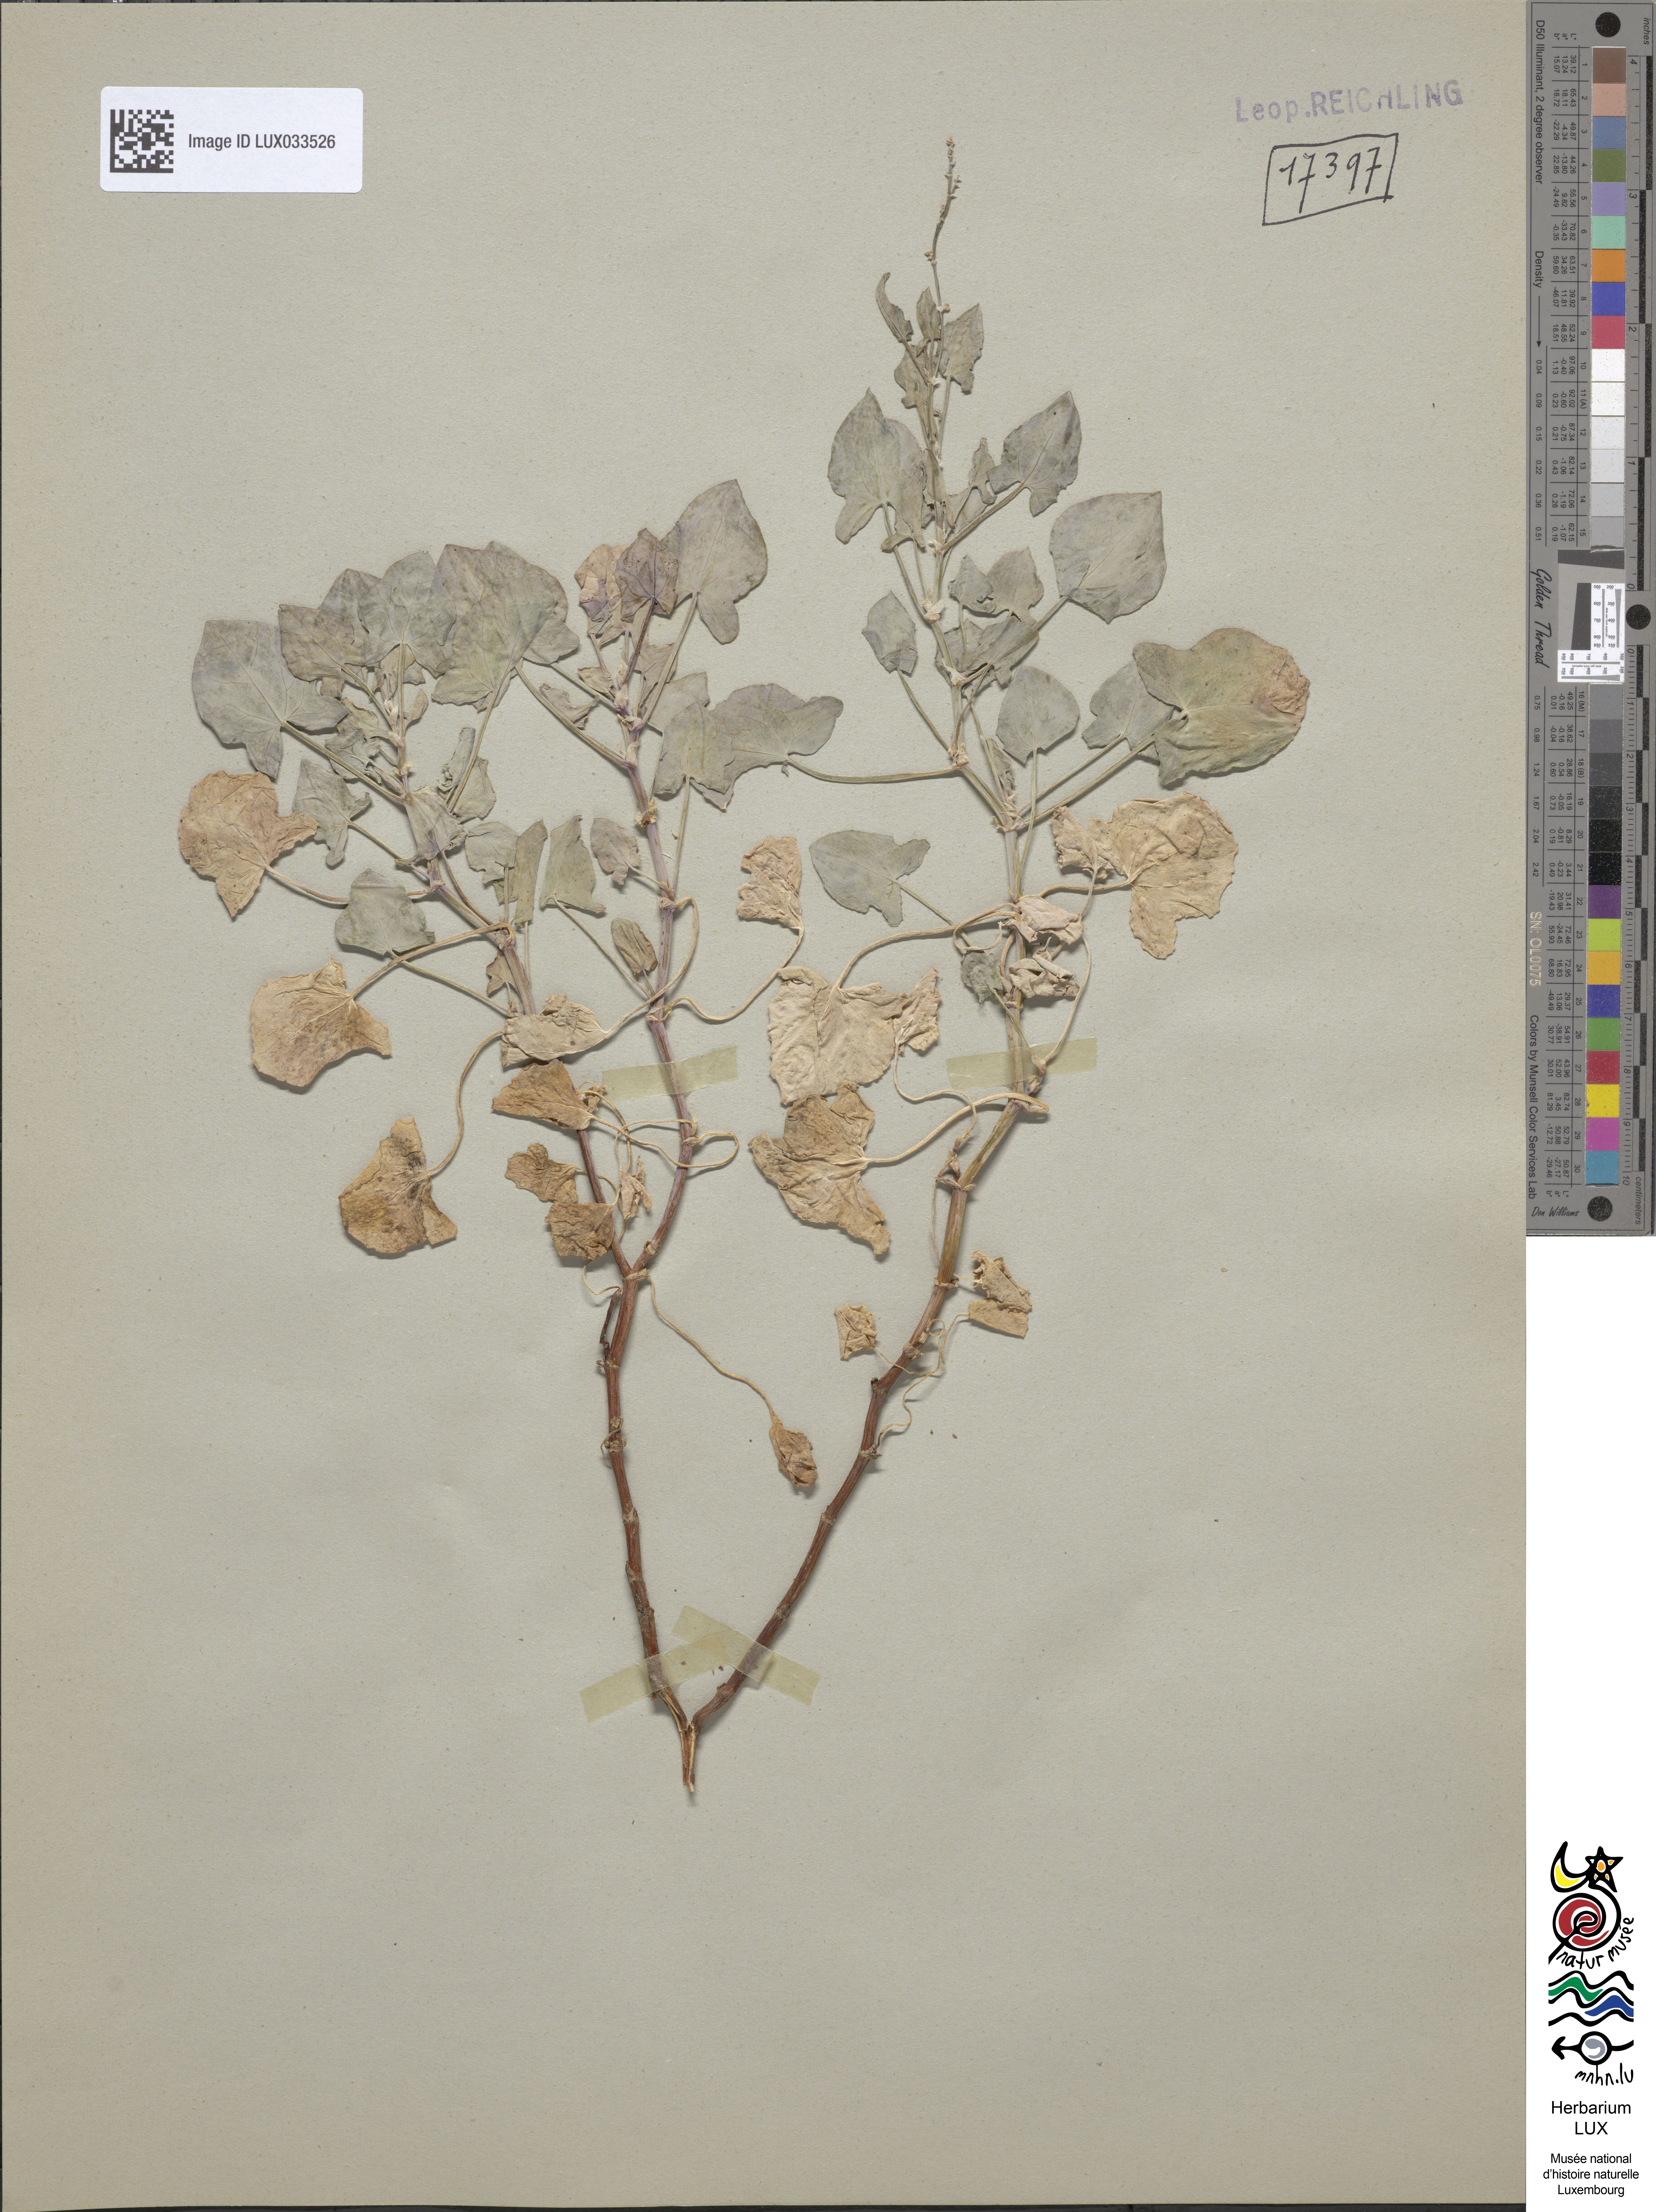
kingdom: Plantae
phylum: Tracheophyta
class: Magnoliopsida
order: Caryophyllales
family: Polygonaceae
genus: Rumex
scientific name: Rumex scutatus
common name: French sorrel
